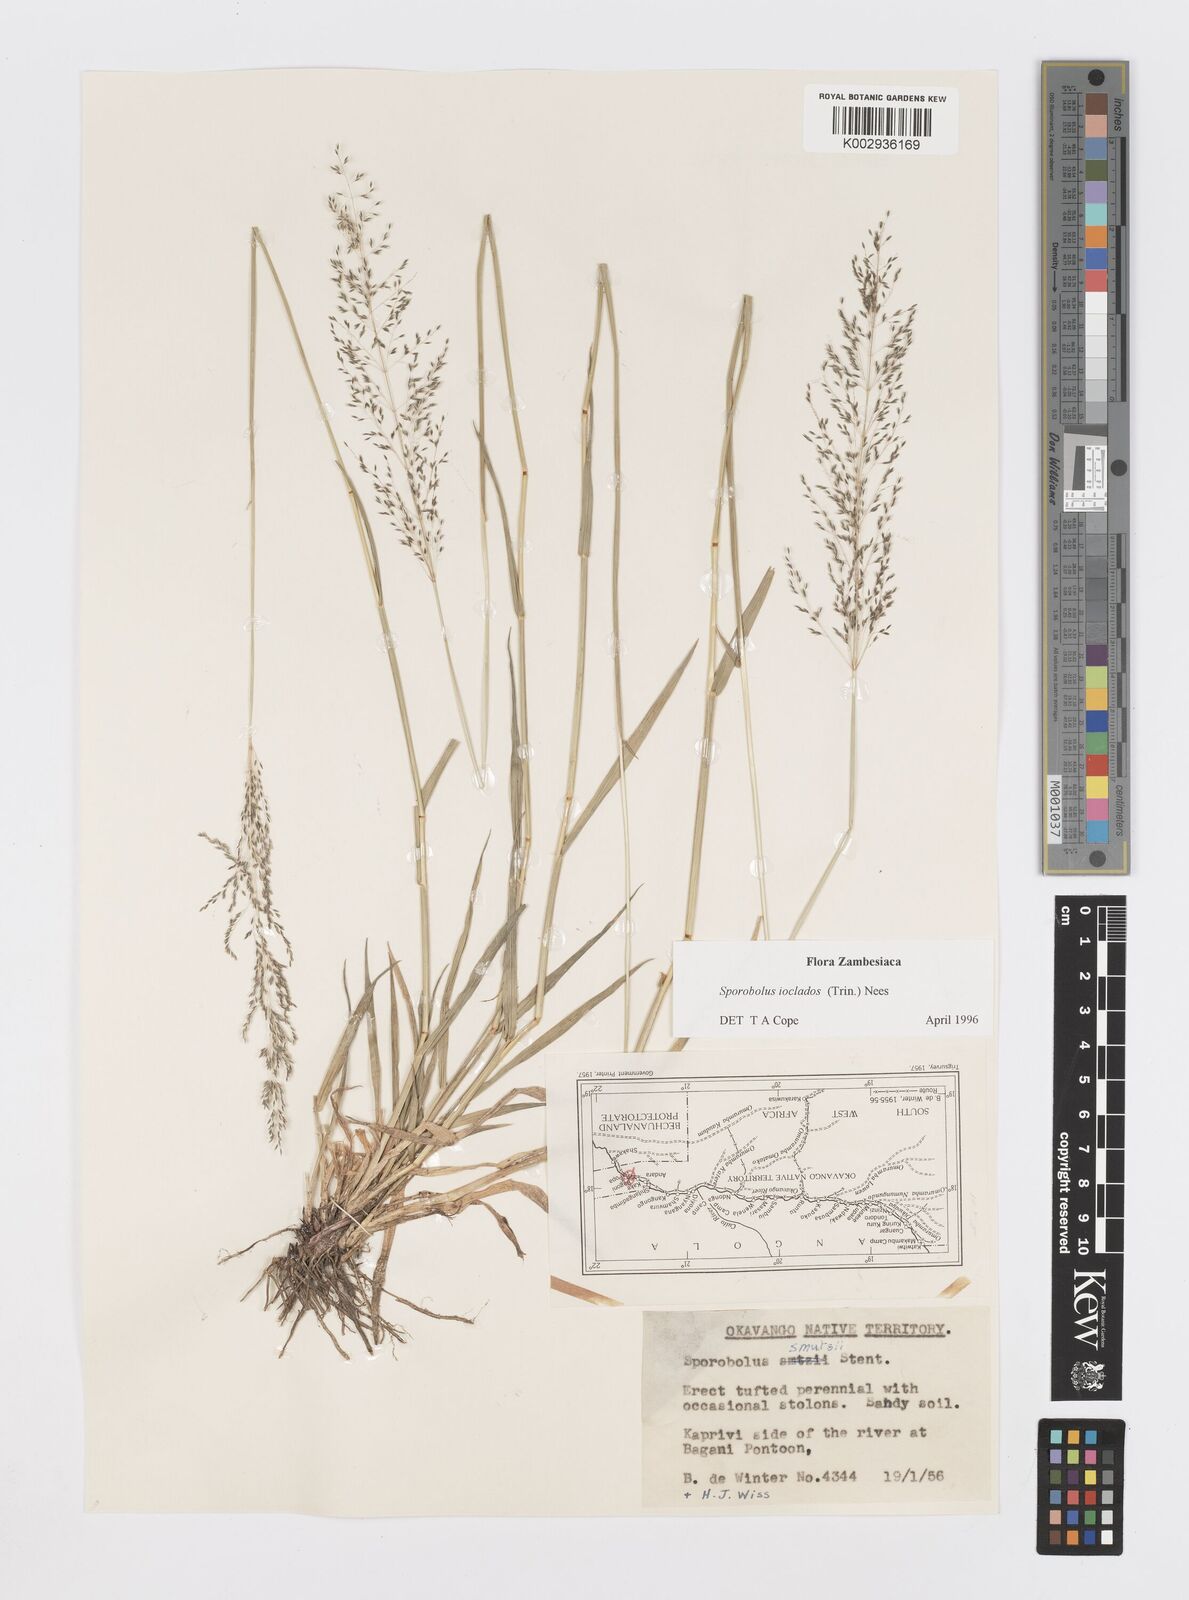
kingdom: Plantae
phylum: Tracheophyta
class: Liliopsida
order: Poales
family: Poaceae
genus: Sporobolus
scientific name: Sporobolus ioclados
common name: Pan dropseed
